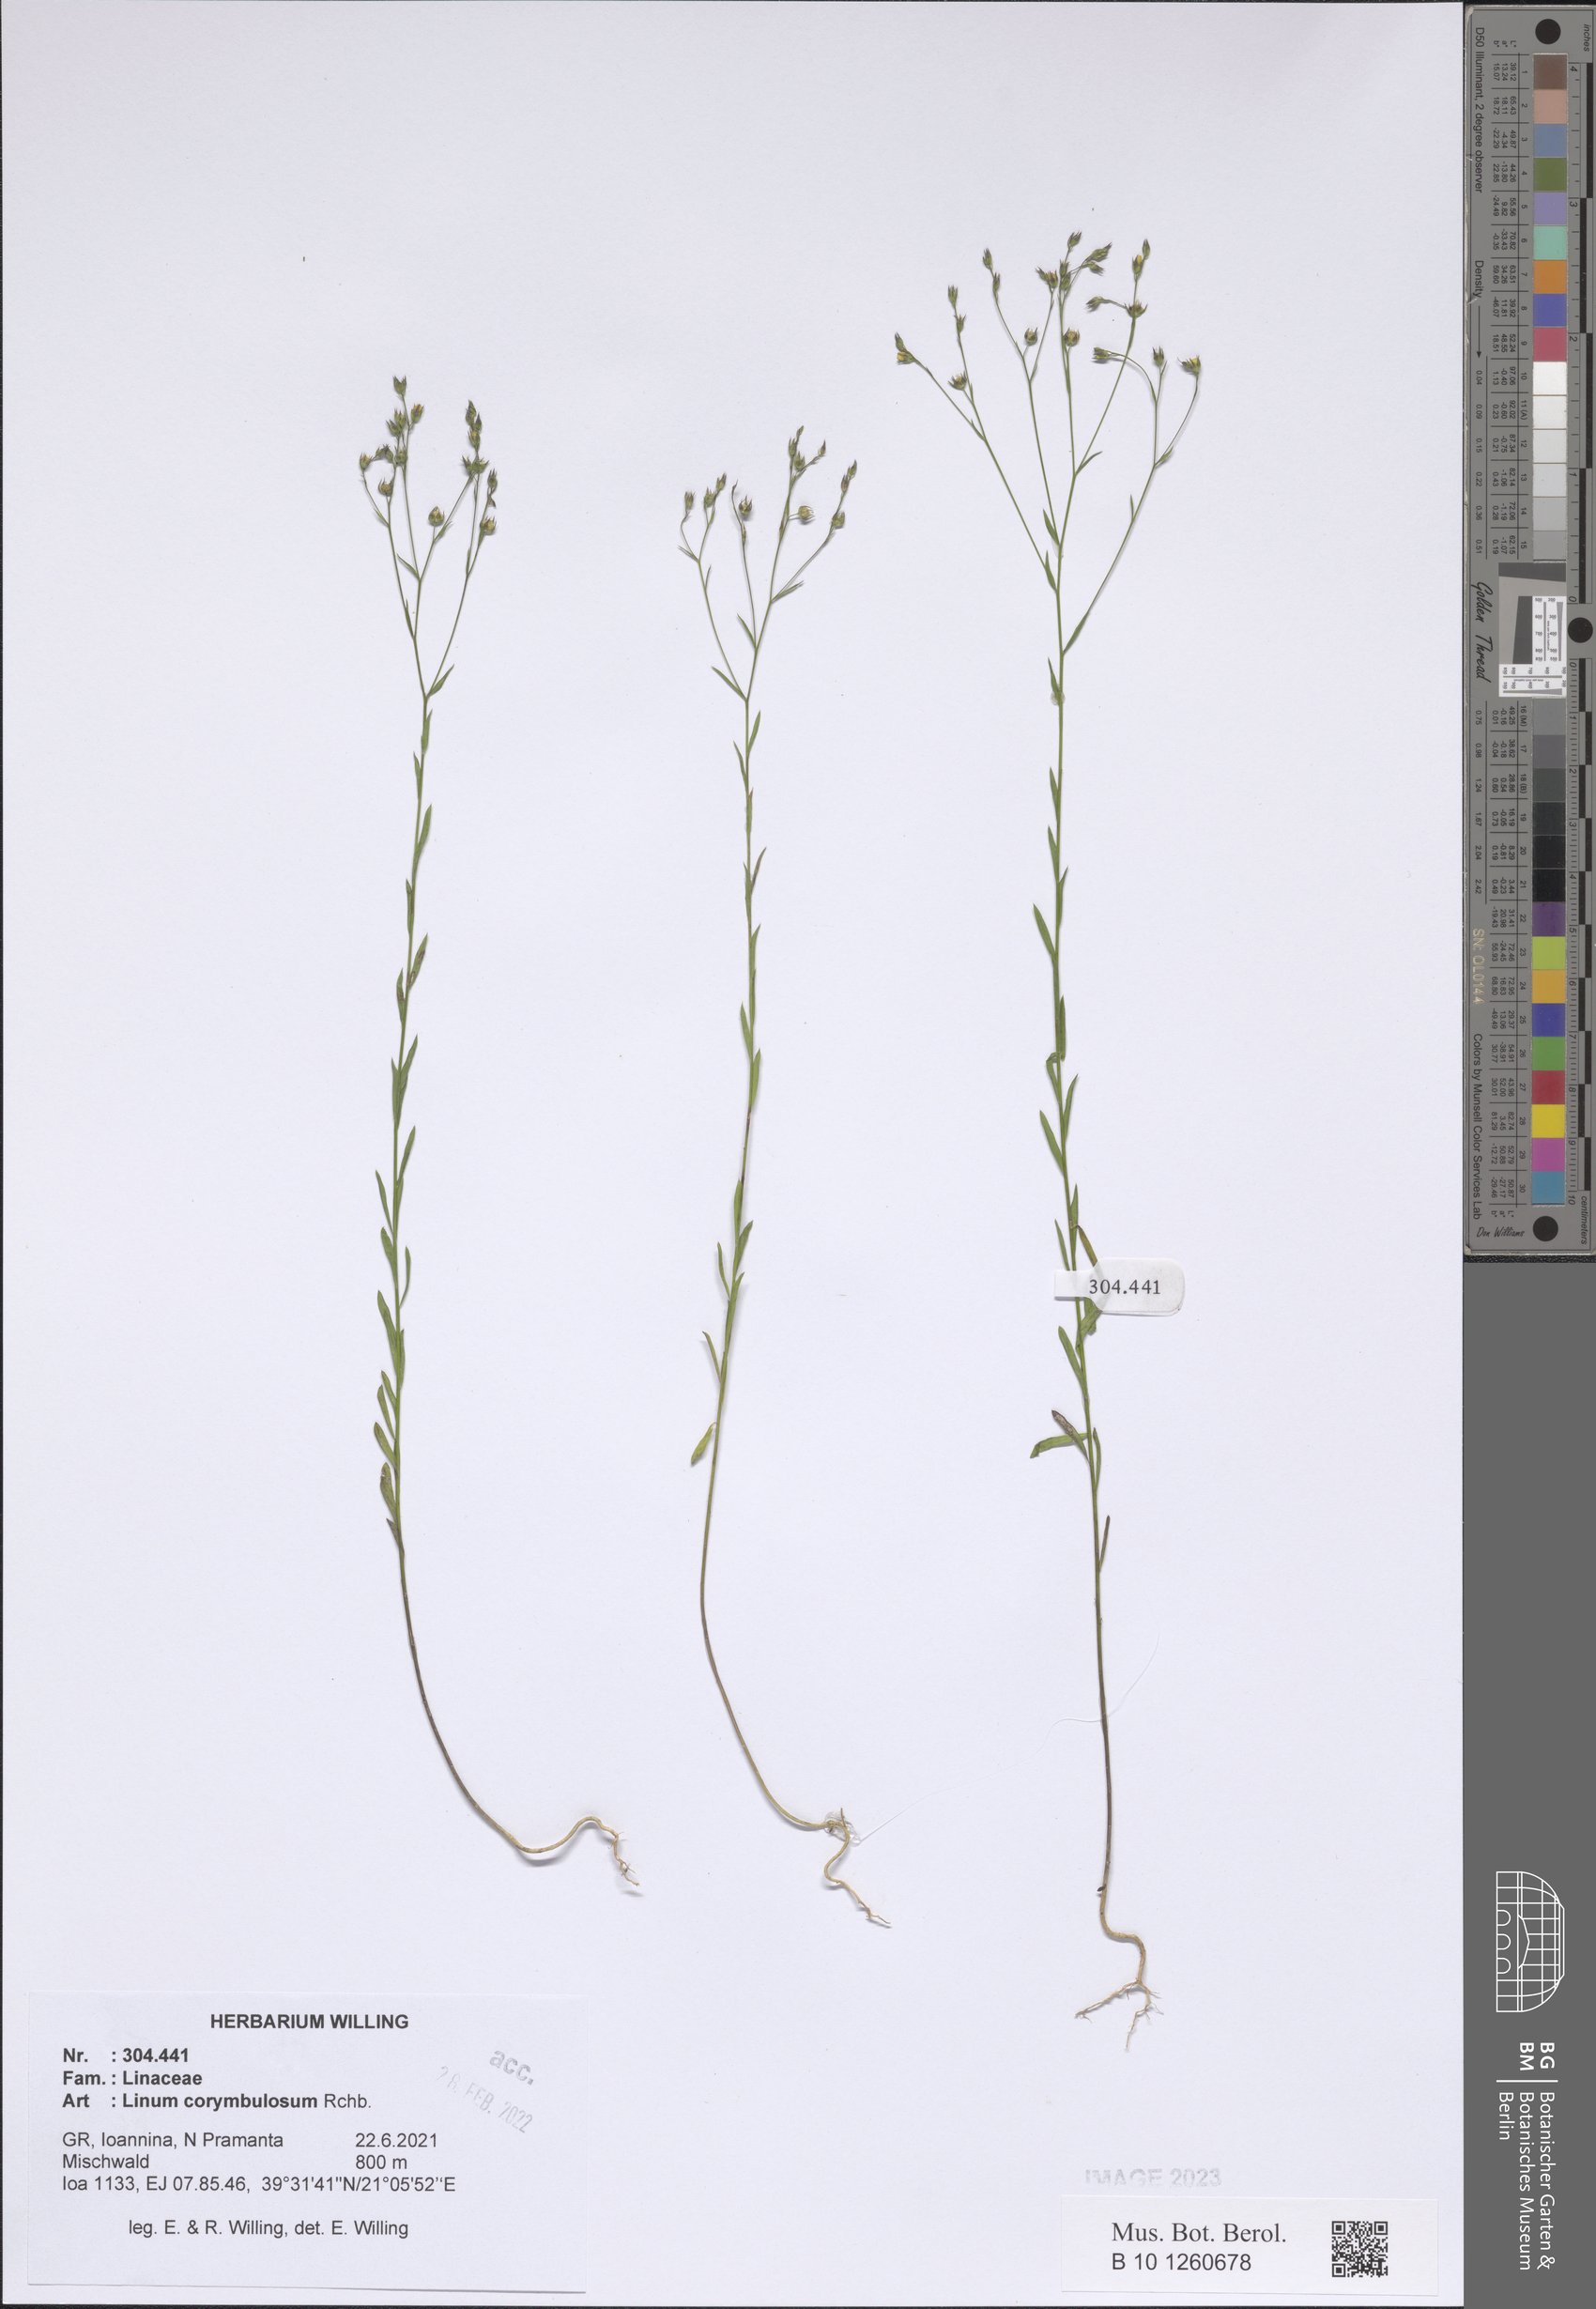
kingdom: Plantae
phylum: Tracheophyta
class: Magnoliopsida
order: Malpighiales
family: Linaceae
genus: Linum
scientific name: Linum corymbulosum
